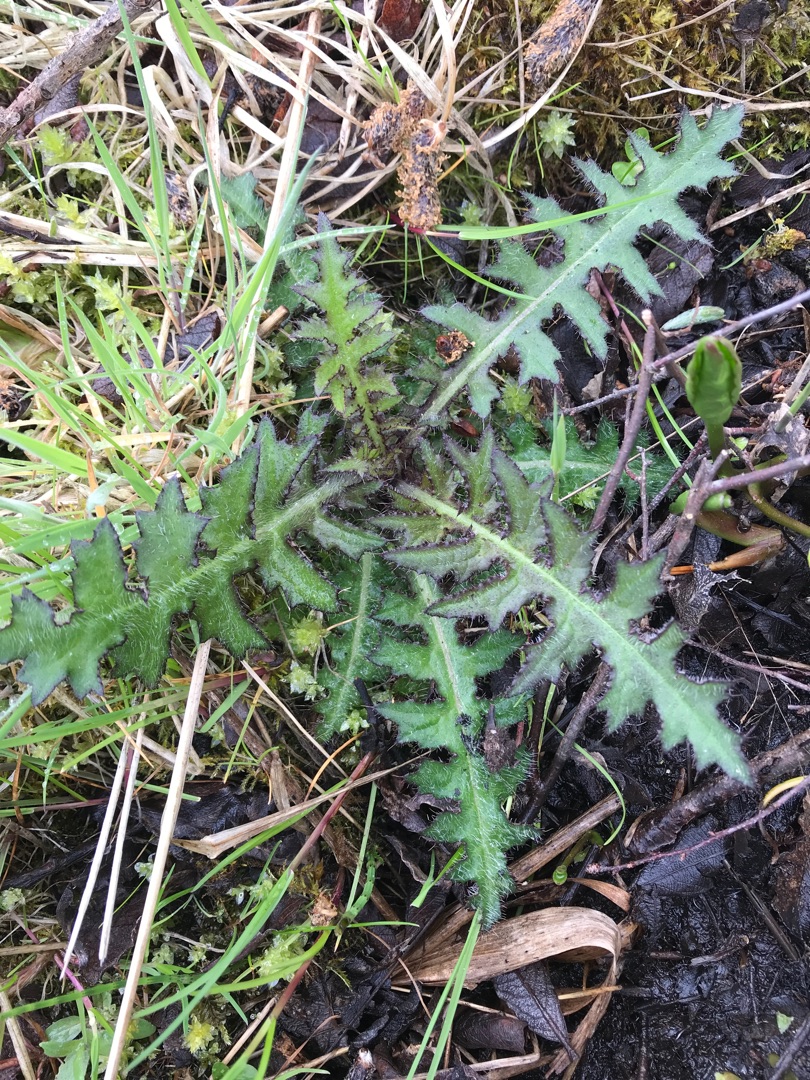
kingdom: Plantae
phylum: Tracheophyta
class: Magnoliopsida
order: Asterales
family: Asteraceae
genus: Cirsium
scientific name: Cirsium palustre
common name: Kær-tidsel
